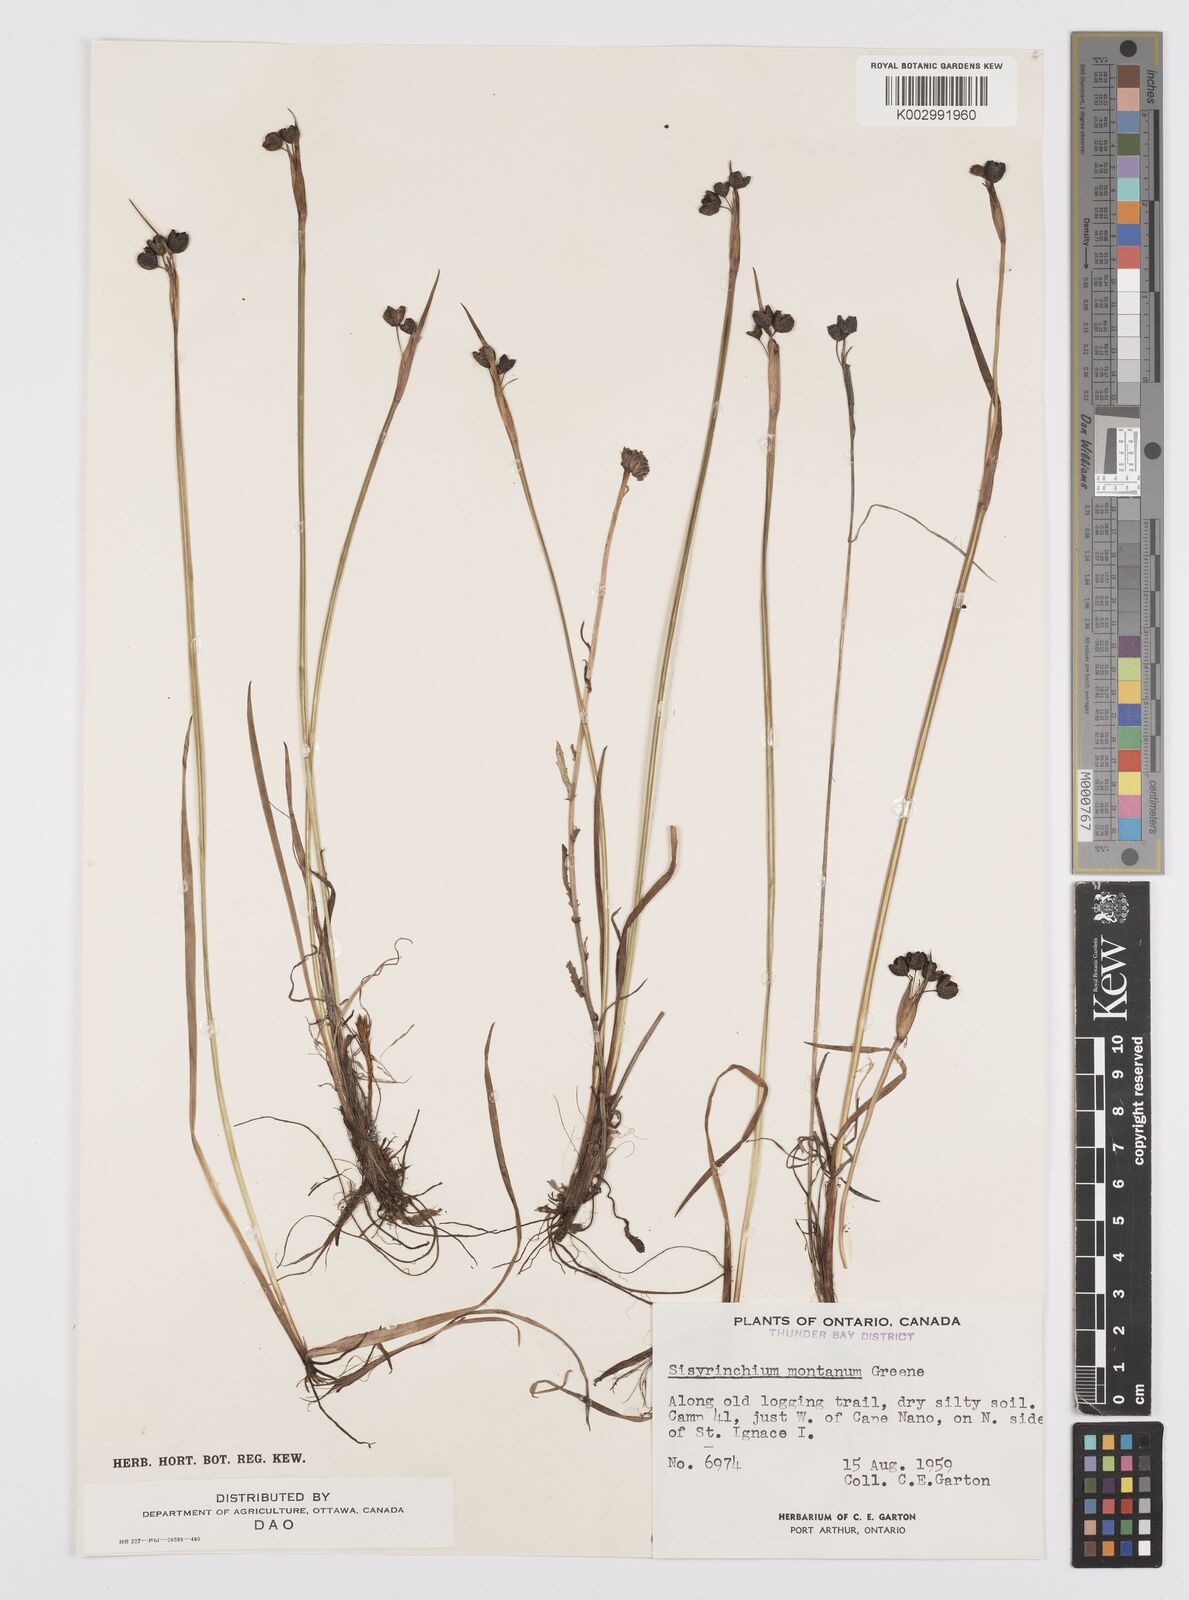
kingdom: Plantae
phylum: Tracheophyta
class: Liliopsida
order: Asparagales
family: Iridaceae
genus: Sisyrinchium
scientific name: Sisyrinchium montanum
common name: American blue-eyed-grass
